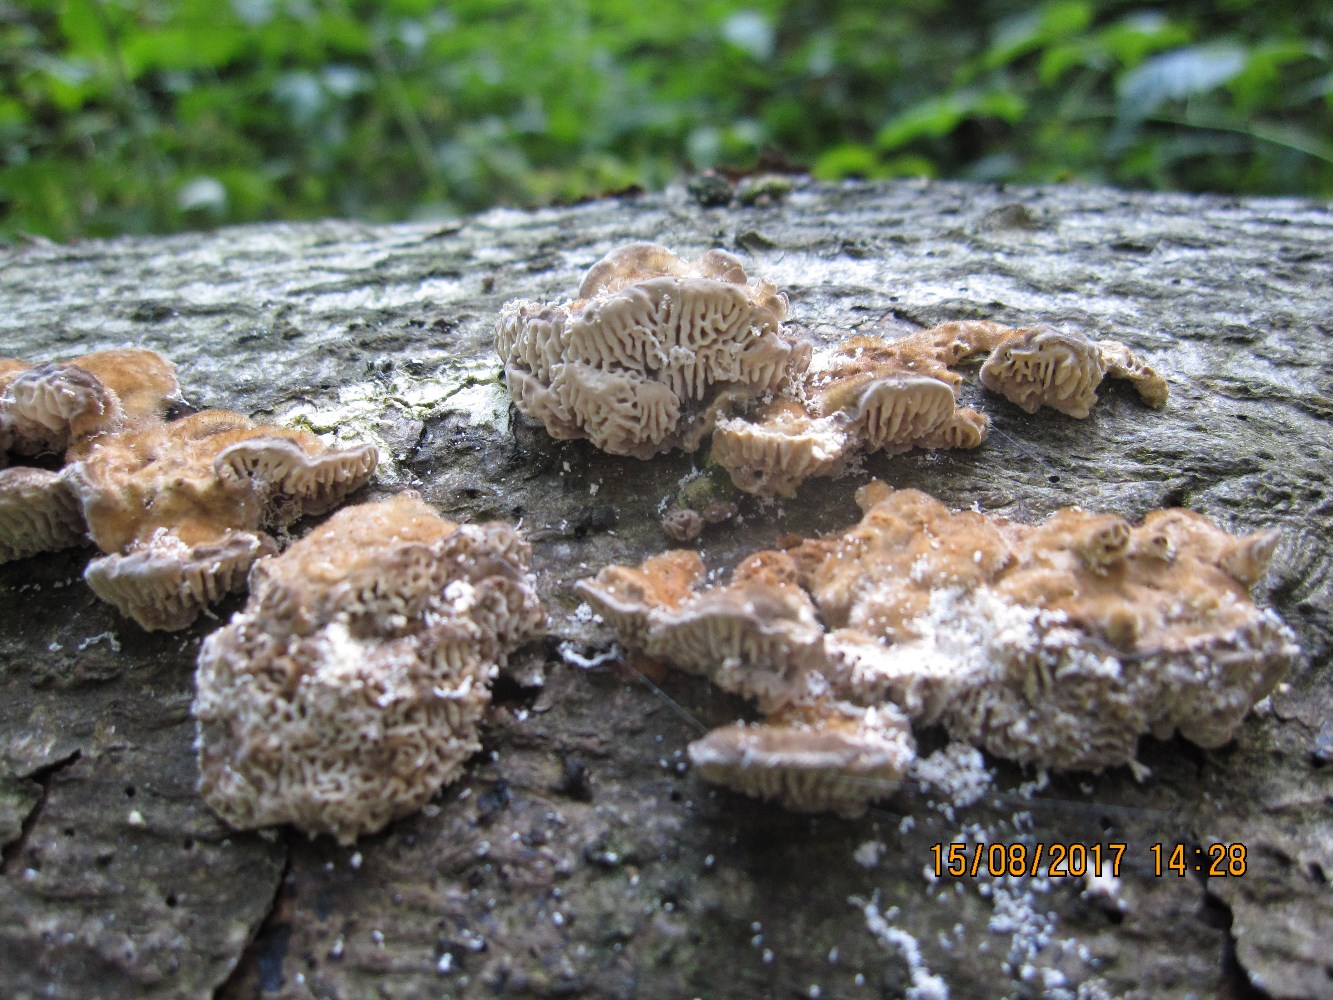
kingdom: Fungi
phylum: Basidiomycota
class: Agaricomycetes
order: Polyporales
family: Polyporaceae
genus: Lenzites
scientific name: Lenzites betulinus
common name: birke-læderporesvamp
